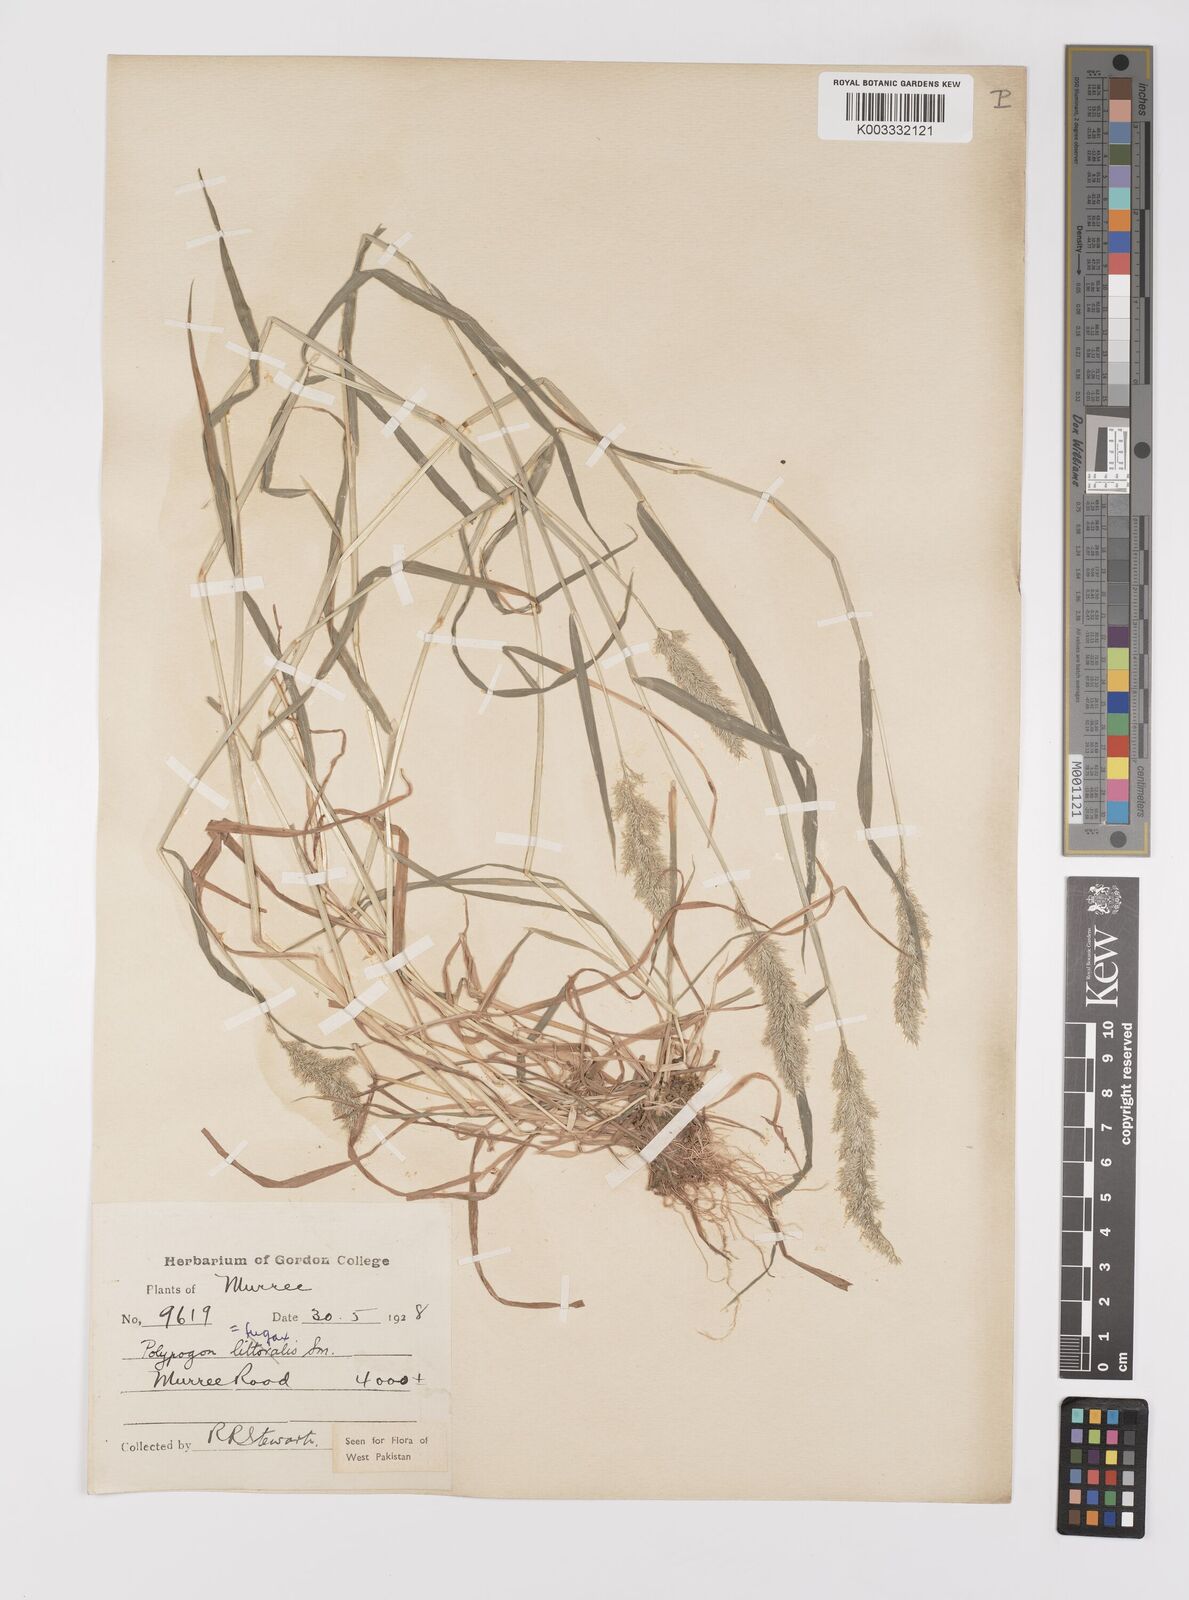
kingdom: Plantae
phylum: Tracheophyta
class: Liliopsida
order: Poales
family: Poaceae
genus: Polypogon
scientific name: Polypogon fugax
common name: Asia minor bluegrass
